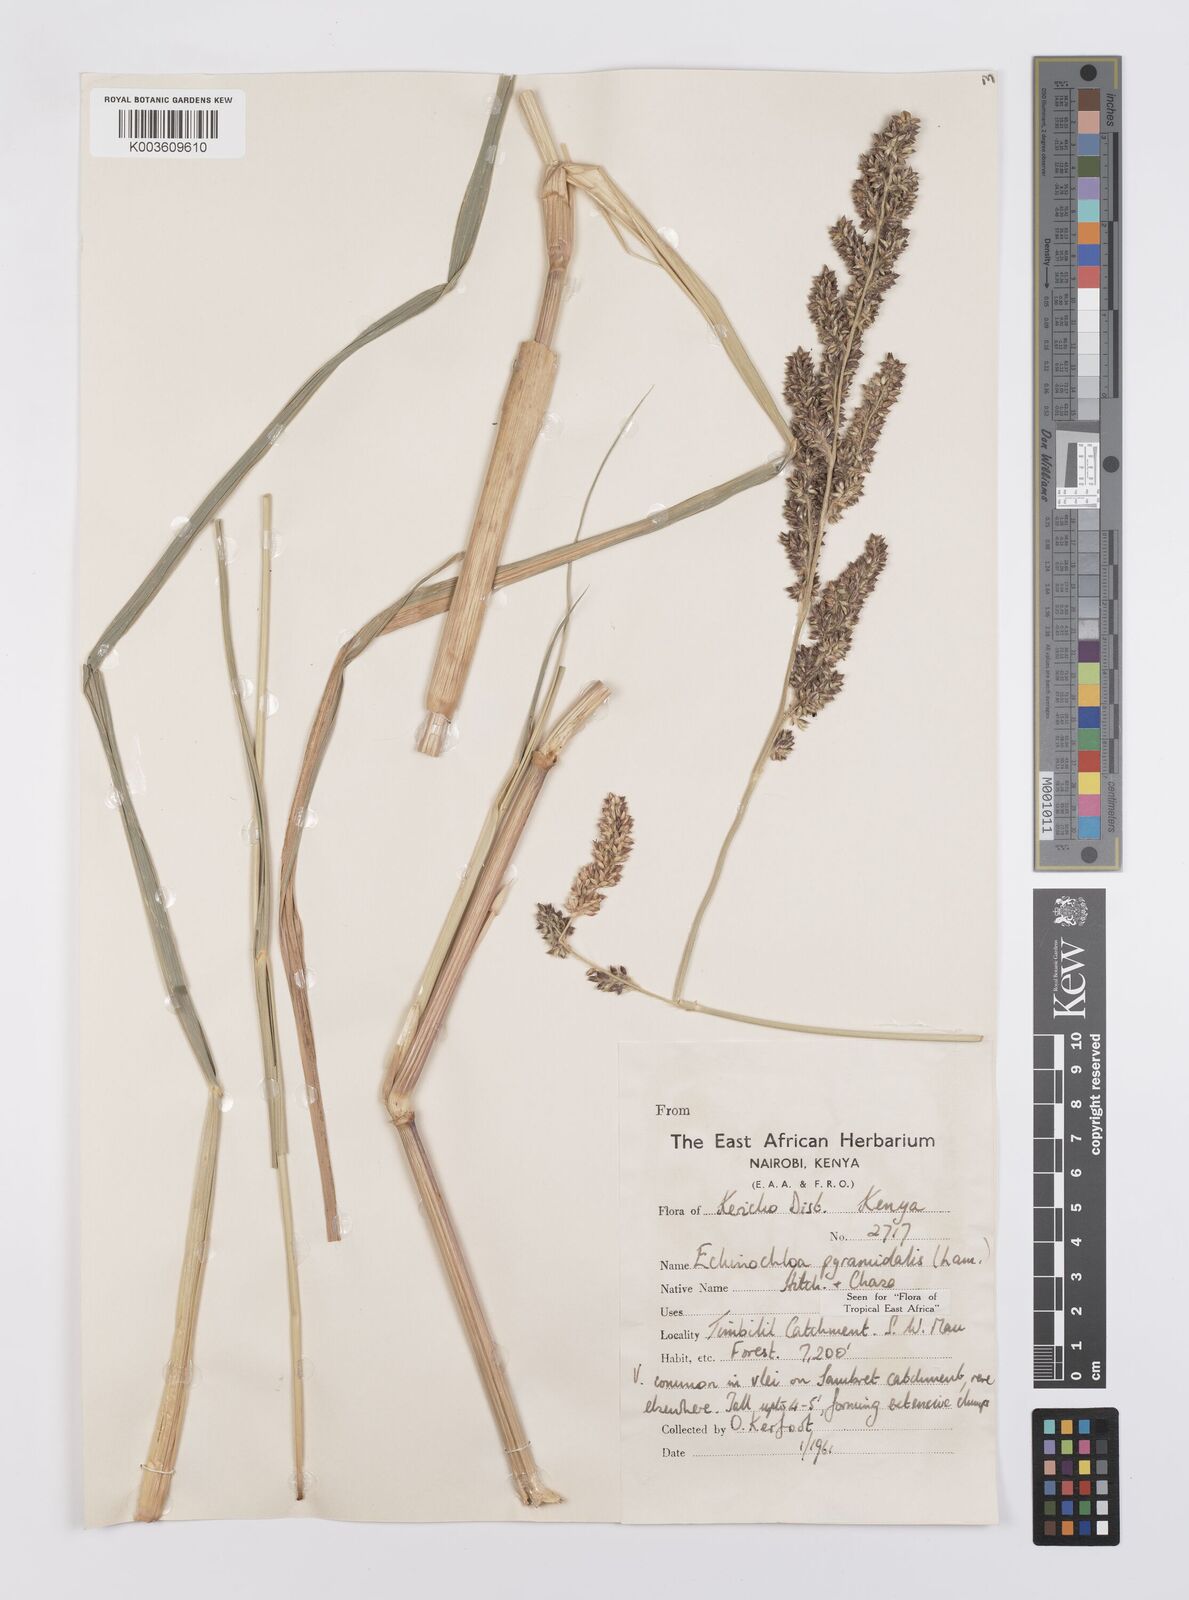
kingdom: Plantae
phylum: Tracheophyta
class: Liliopsida
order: Poales
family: Poaceae
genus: Echinochloa
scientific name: Echinochloa
